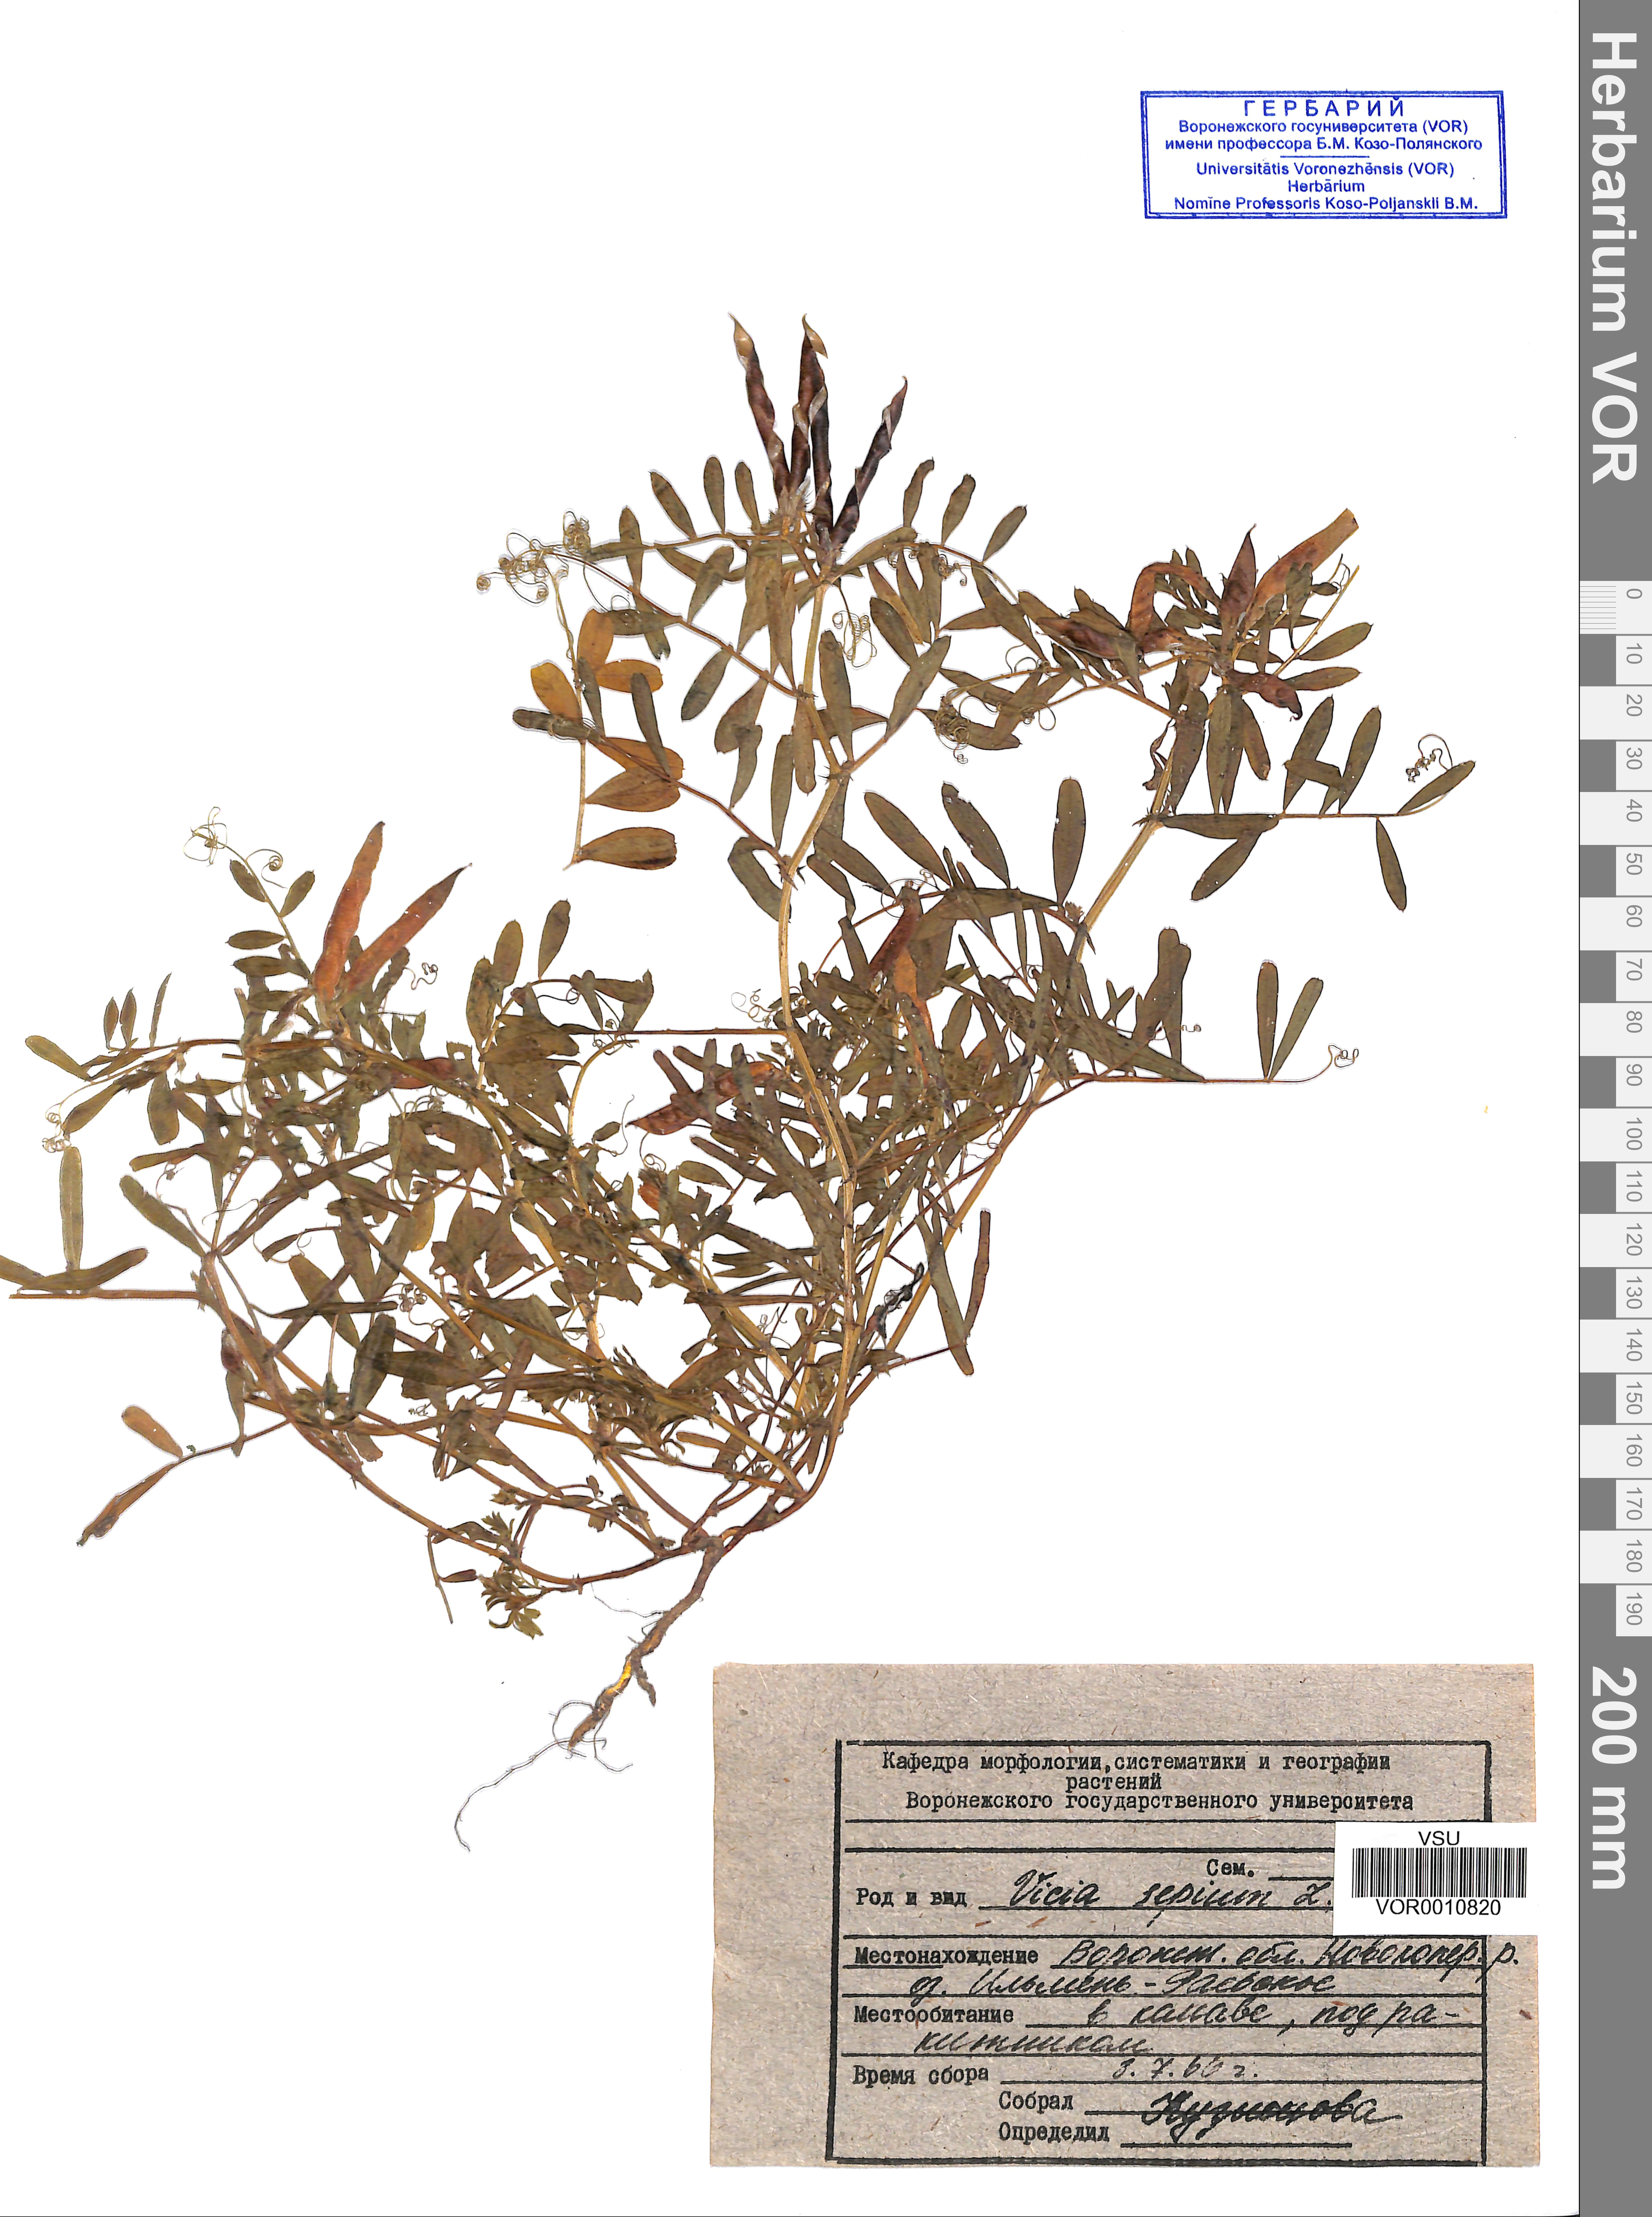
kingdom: Plantae
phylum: Tracheophyta
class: Magnoliopsida
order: Fabales
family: Fabaceae
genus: Vicia
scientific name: Vicia sativa
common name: Garden vetch
